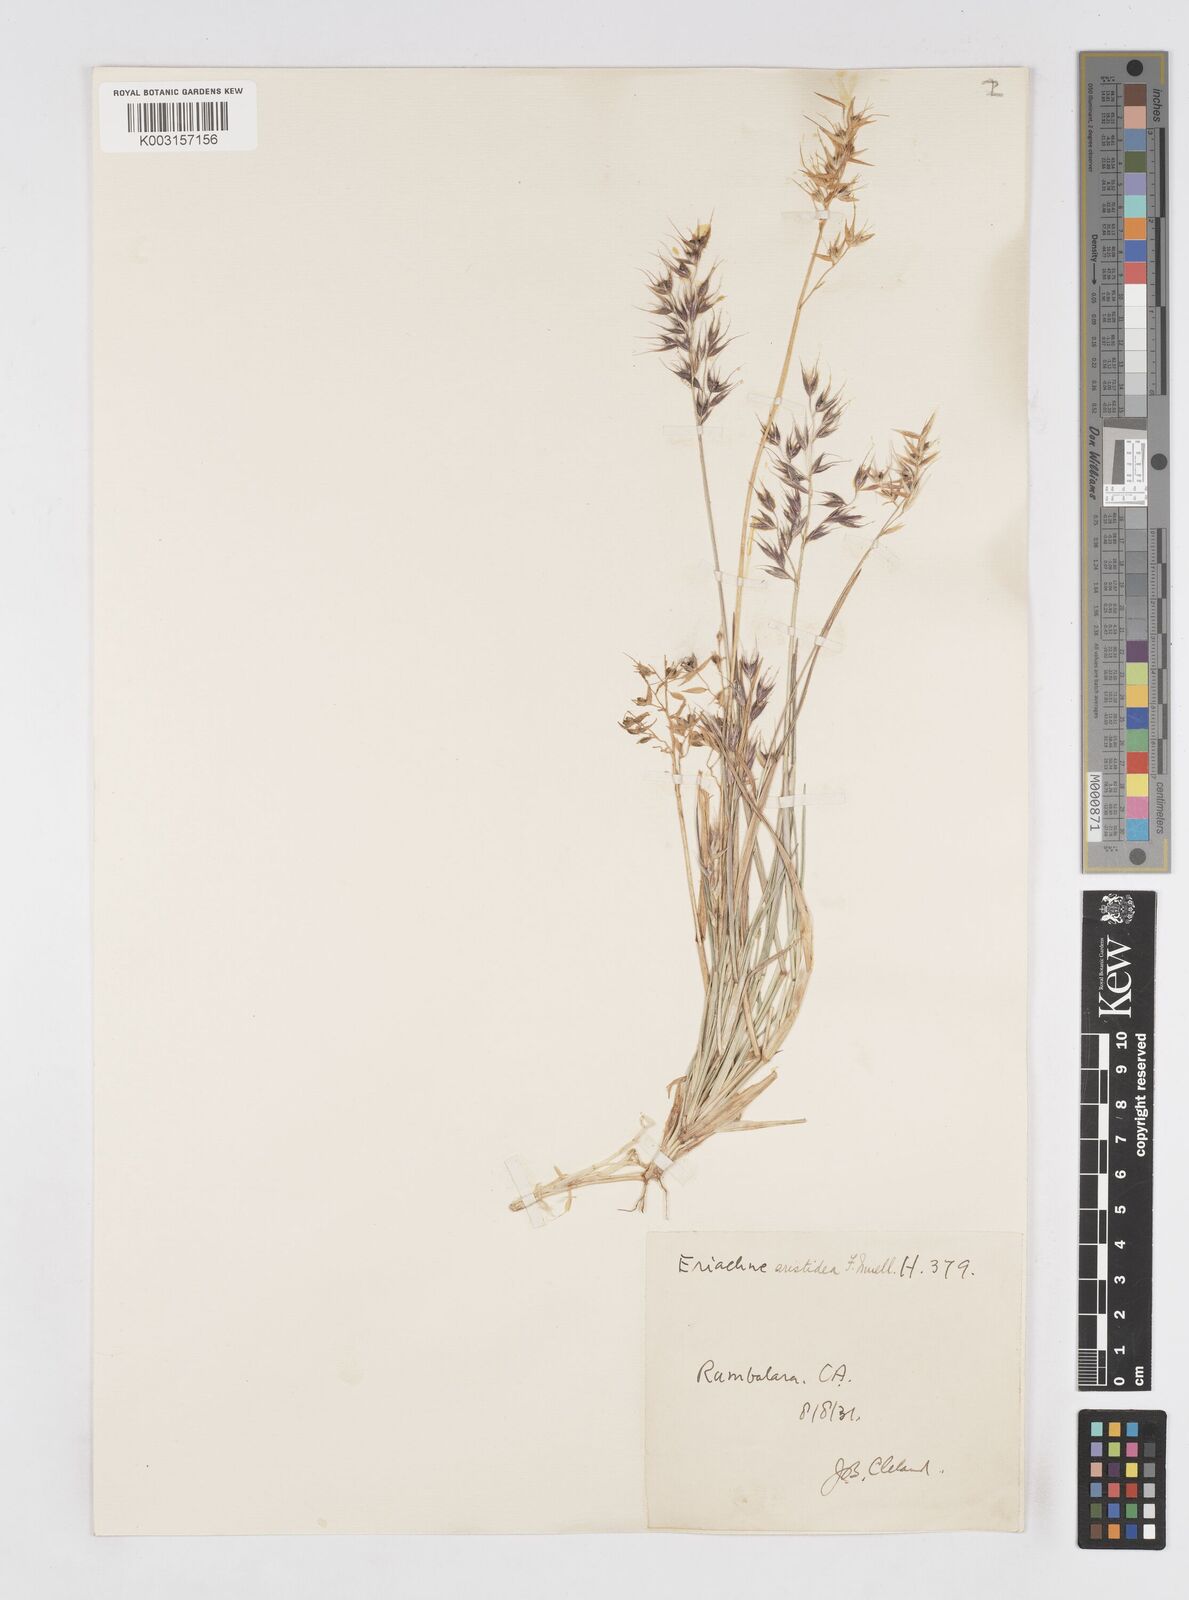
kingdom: Plantae
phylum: Tracheophyta
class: Liliopsida
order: Poales
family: Poaceae
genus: Eriachne
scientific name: Eriachne aristidea
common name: Three-awn wanderrie grass
